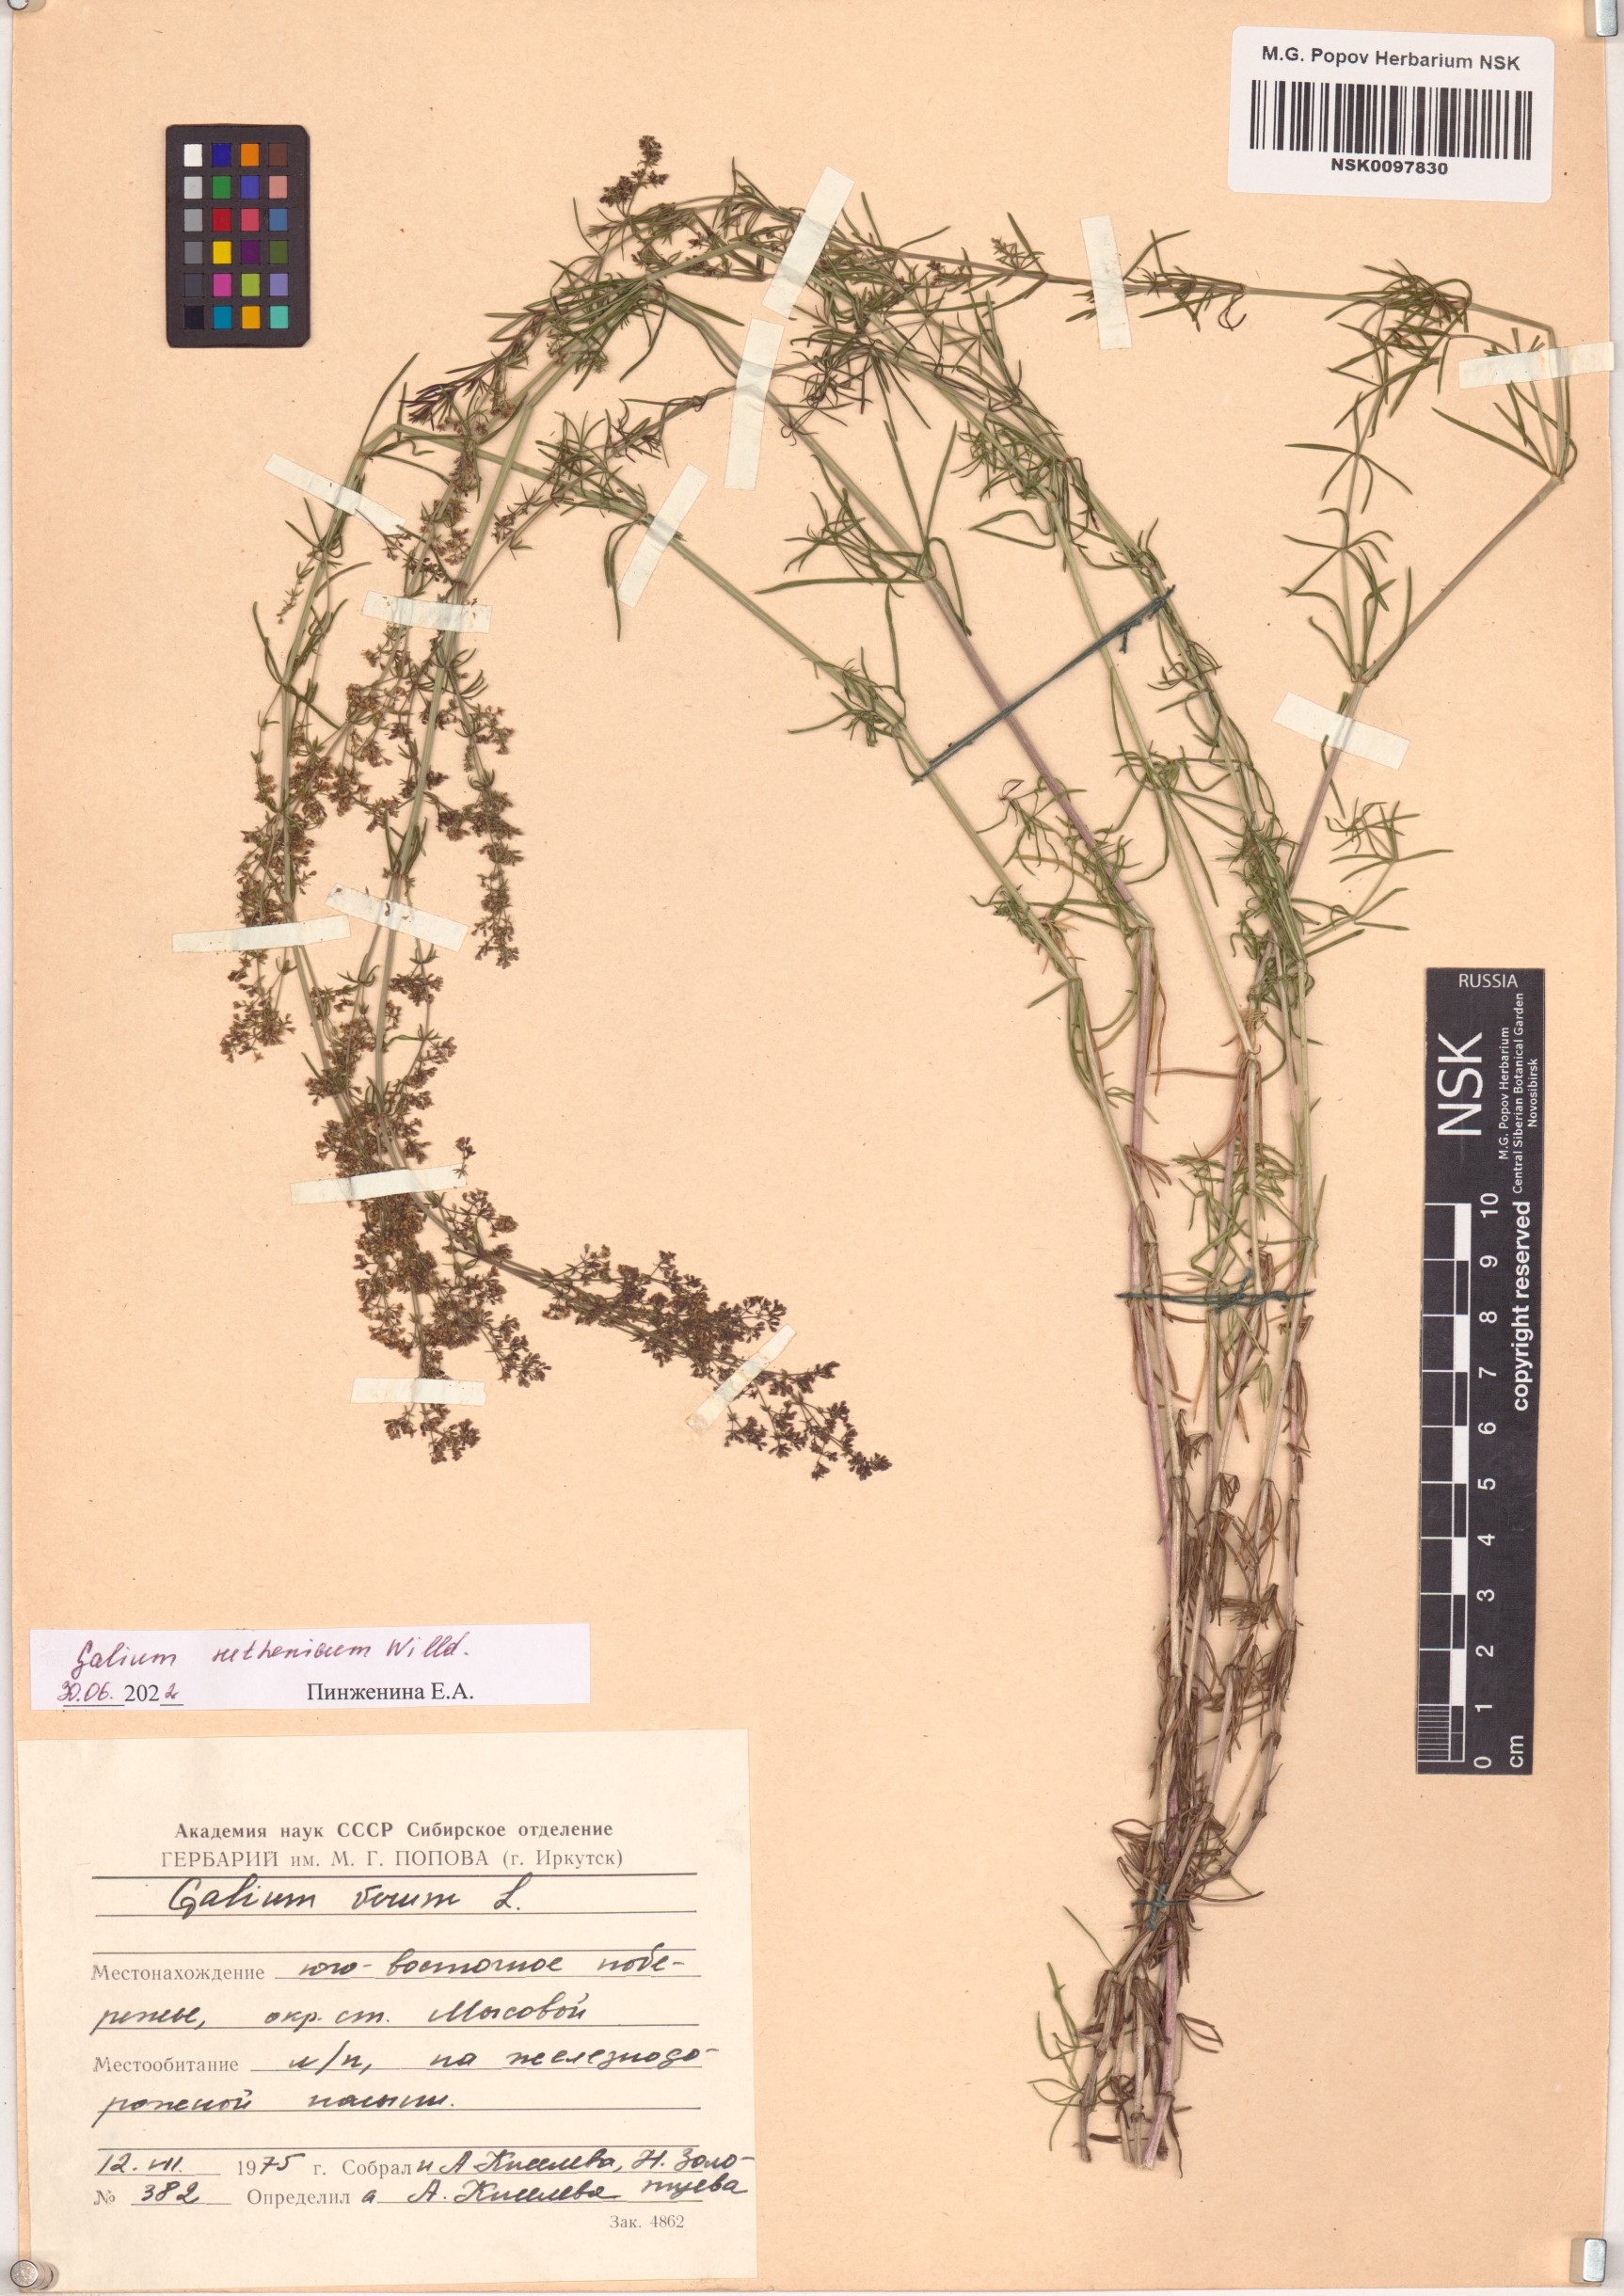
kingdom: Plantae
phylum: Tracheophyta
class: Magnoliopsida
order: Gentianales
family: Rubiaceae
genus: Galium
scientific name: Galium verum
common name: Lady's bedstraw
